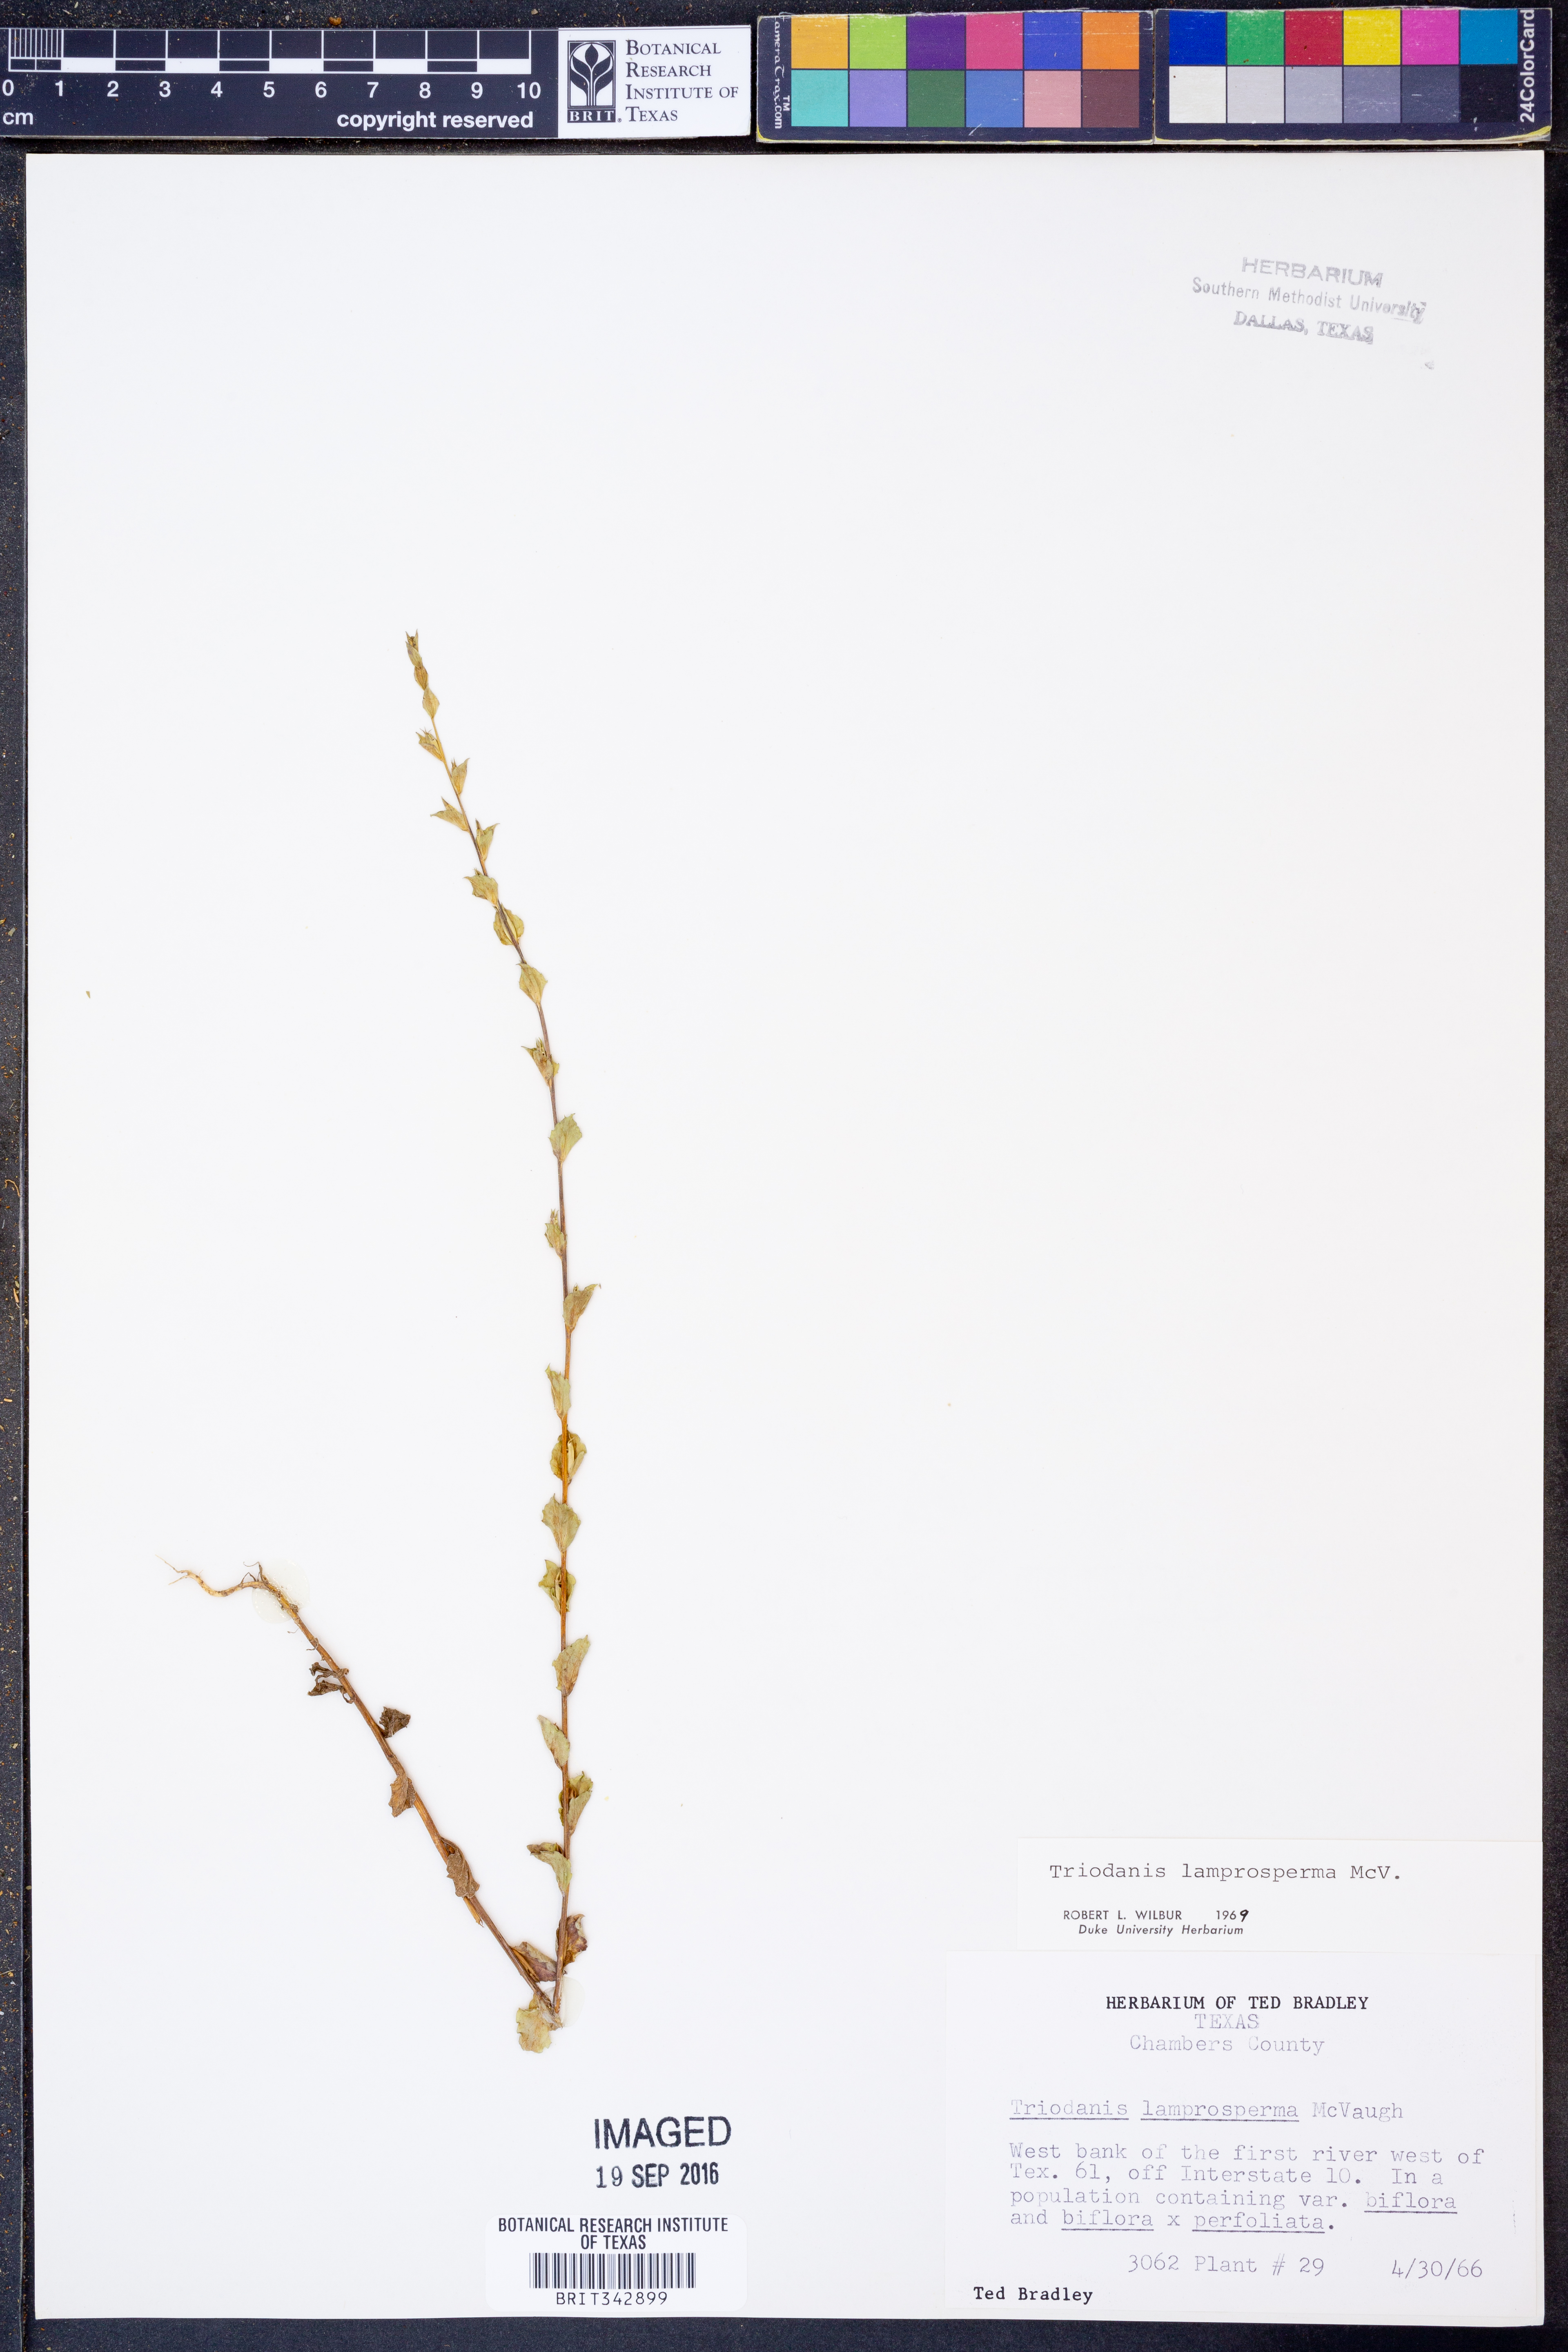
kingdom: Plantae
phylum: Tracheophyta
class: Magnoliopsida
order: Asterales
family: Campanulaceae
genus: Triodanis
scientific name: Triodanis lamprosperma
